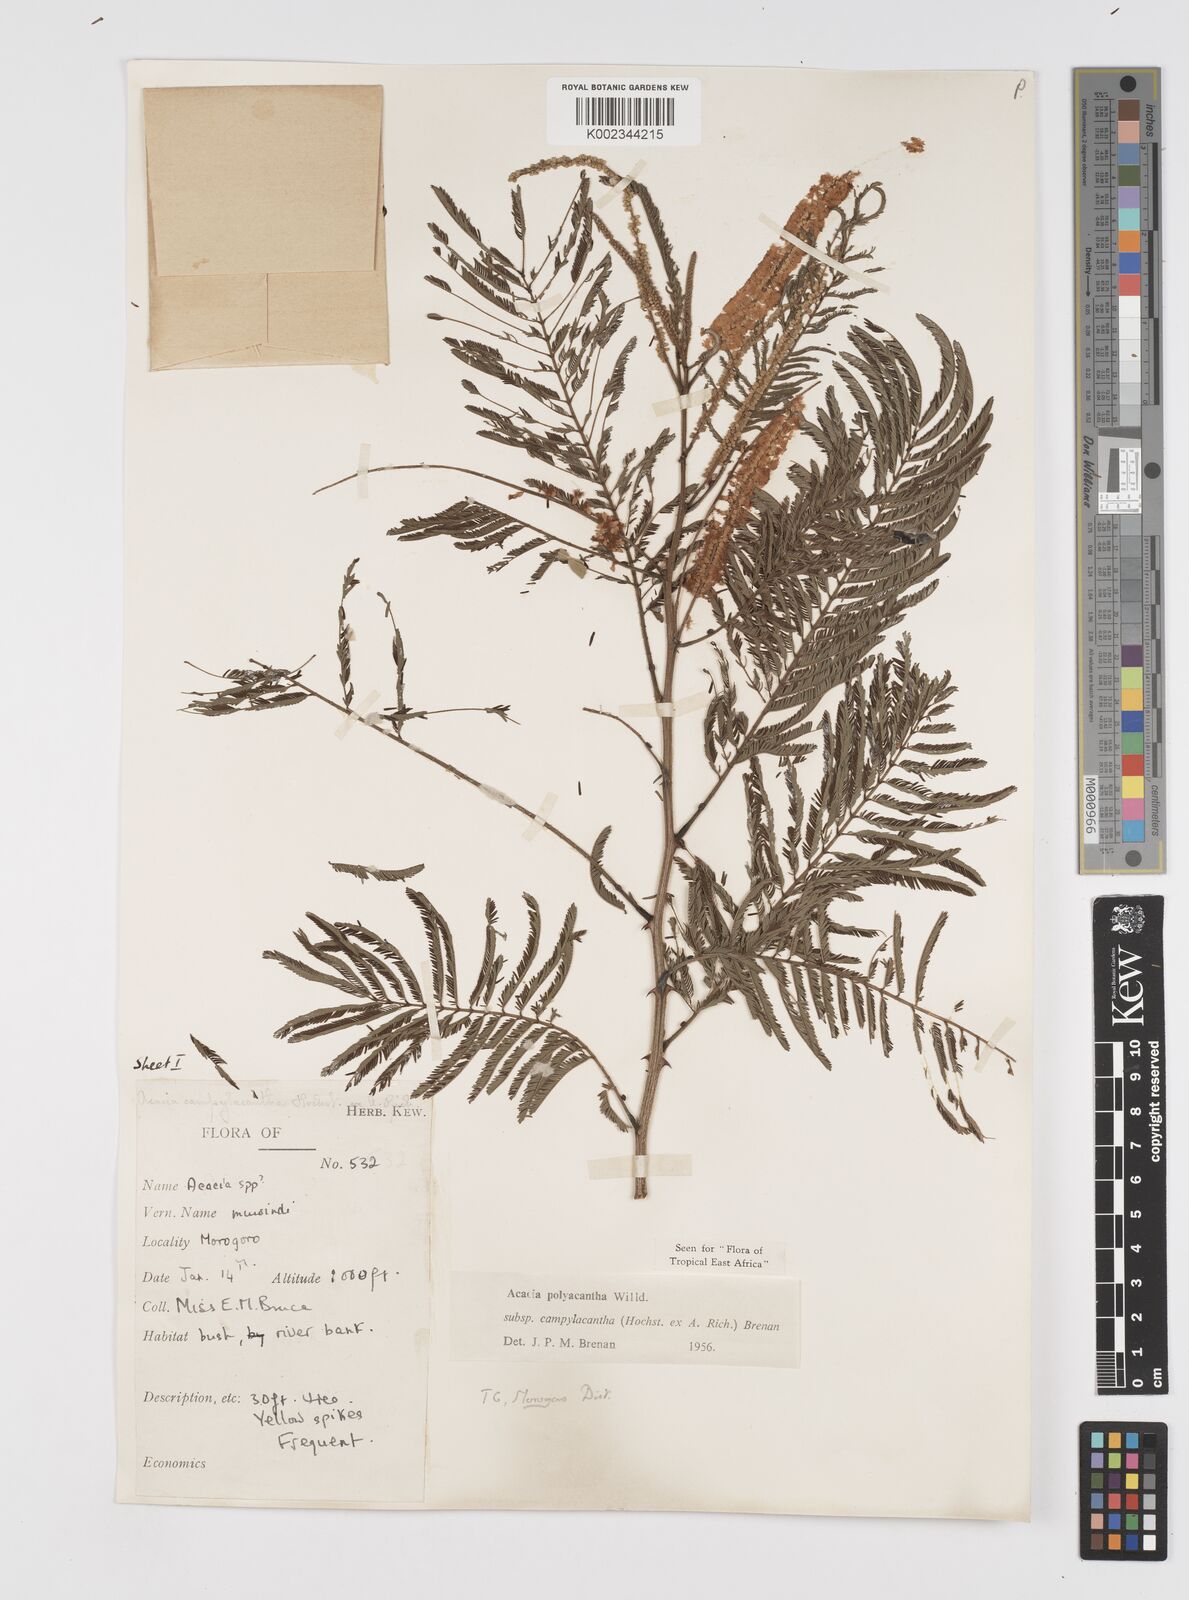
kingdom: Plantae
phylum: Tracheophyta
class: Magnoliopsida
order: Fabales
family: Fabaceae
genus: Senegalia
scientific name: Senegalia polyacantha
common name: Whitethorn
